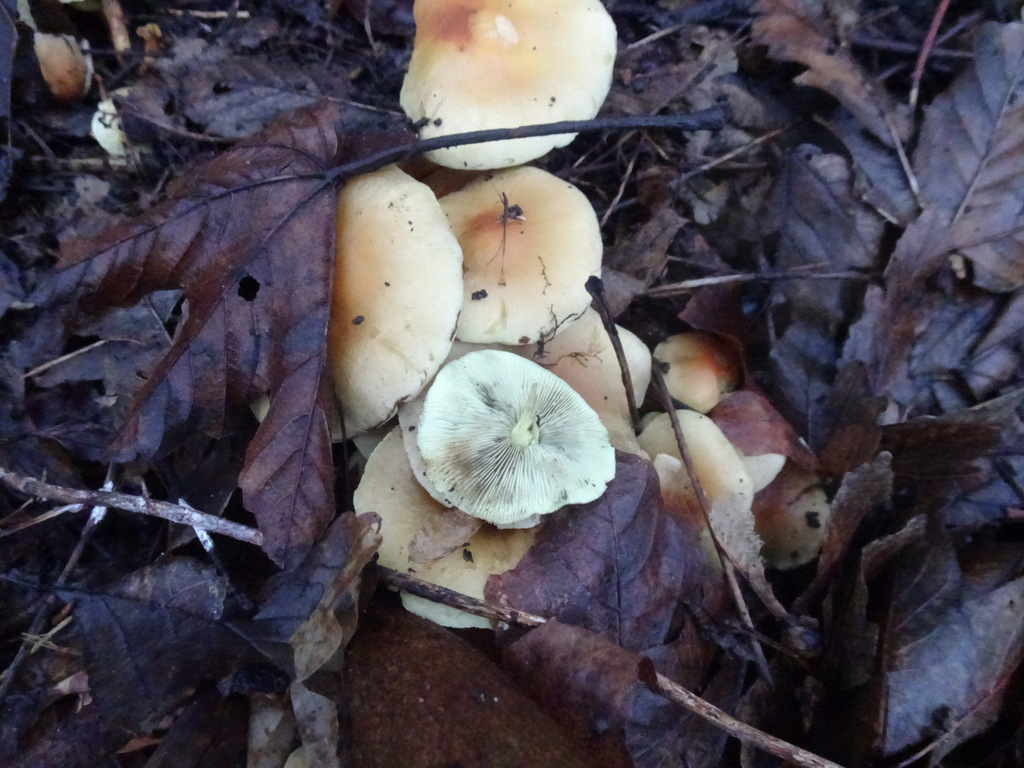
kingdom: Fungi
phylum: Basidiomycota
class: Agaricomycetes
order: Agaricales
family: Strophariaceae
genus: Hypholoma
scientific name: Hypholoma fasciculare
